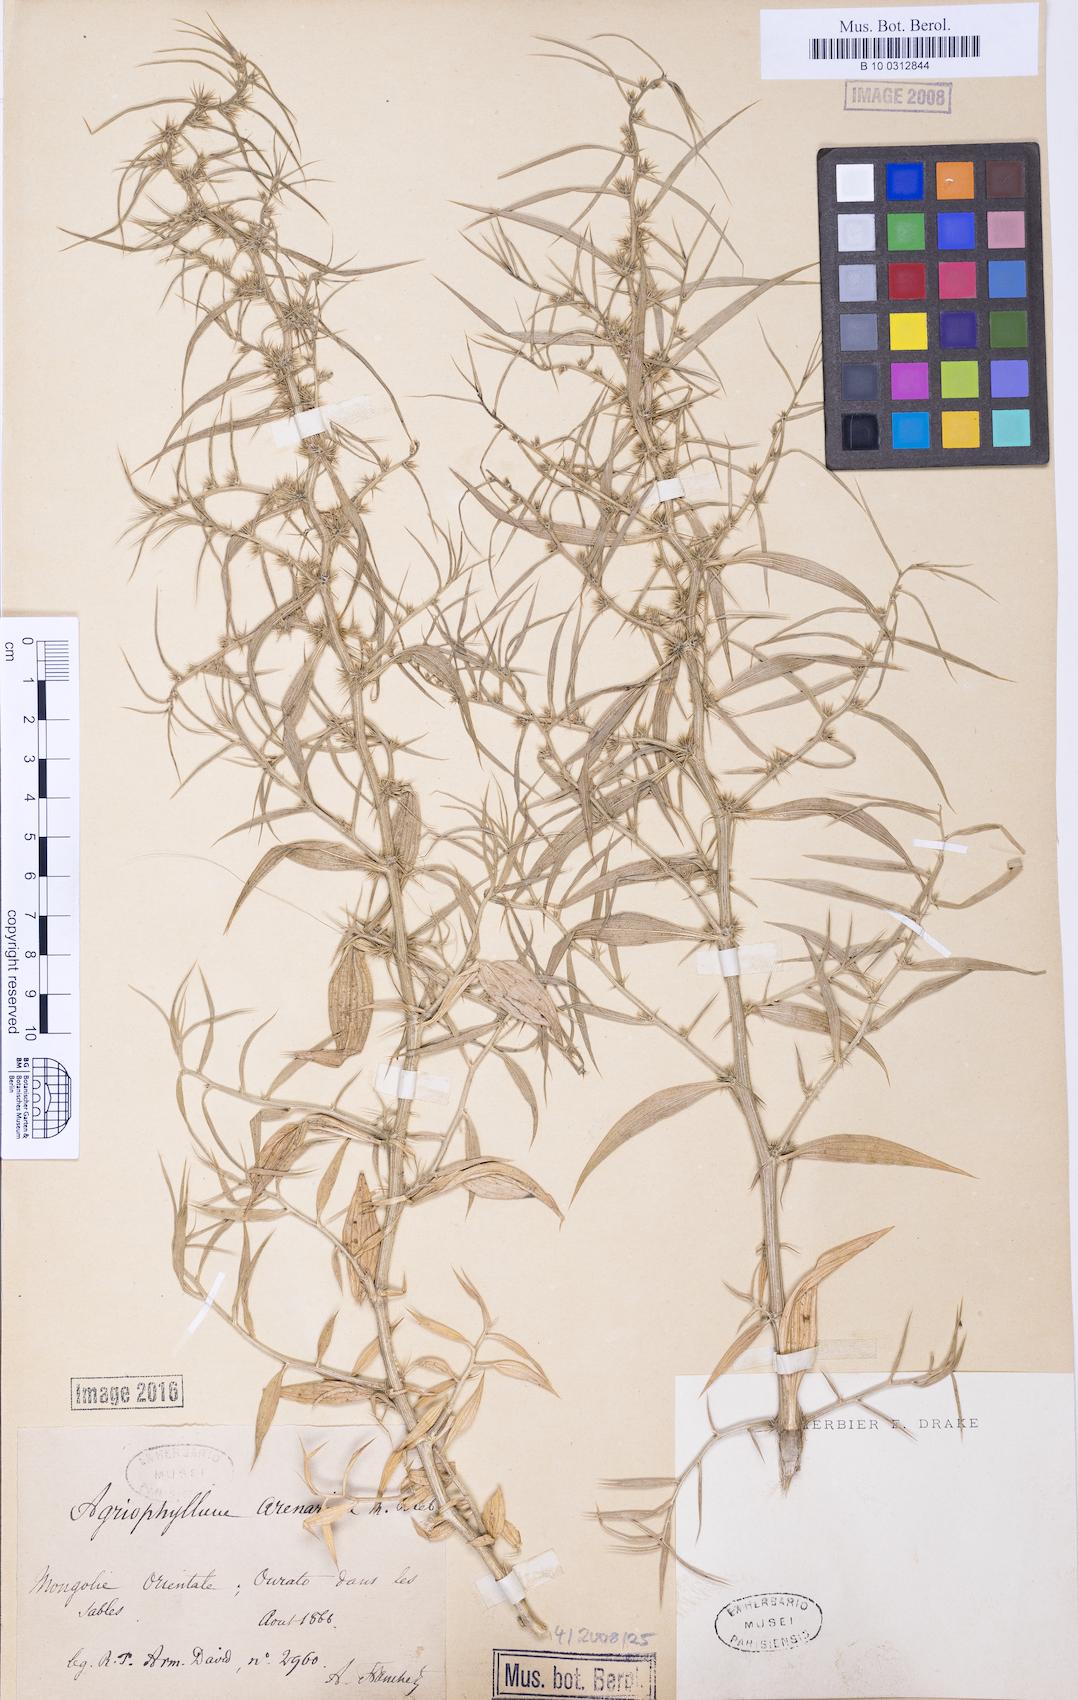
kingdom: Plantae
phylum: Tracheophyta
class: Magnoliopsida
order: Caryophyllales
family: Amaranthaceae
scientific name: Amaranthaceae
